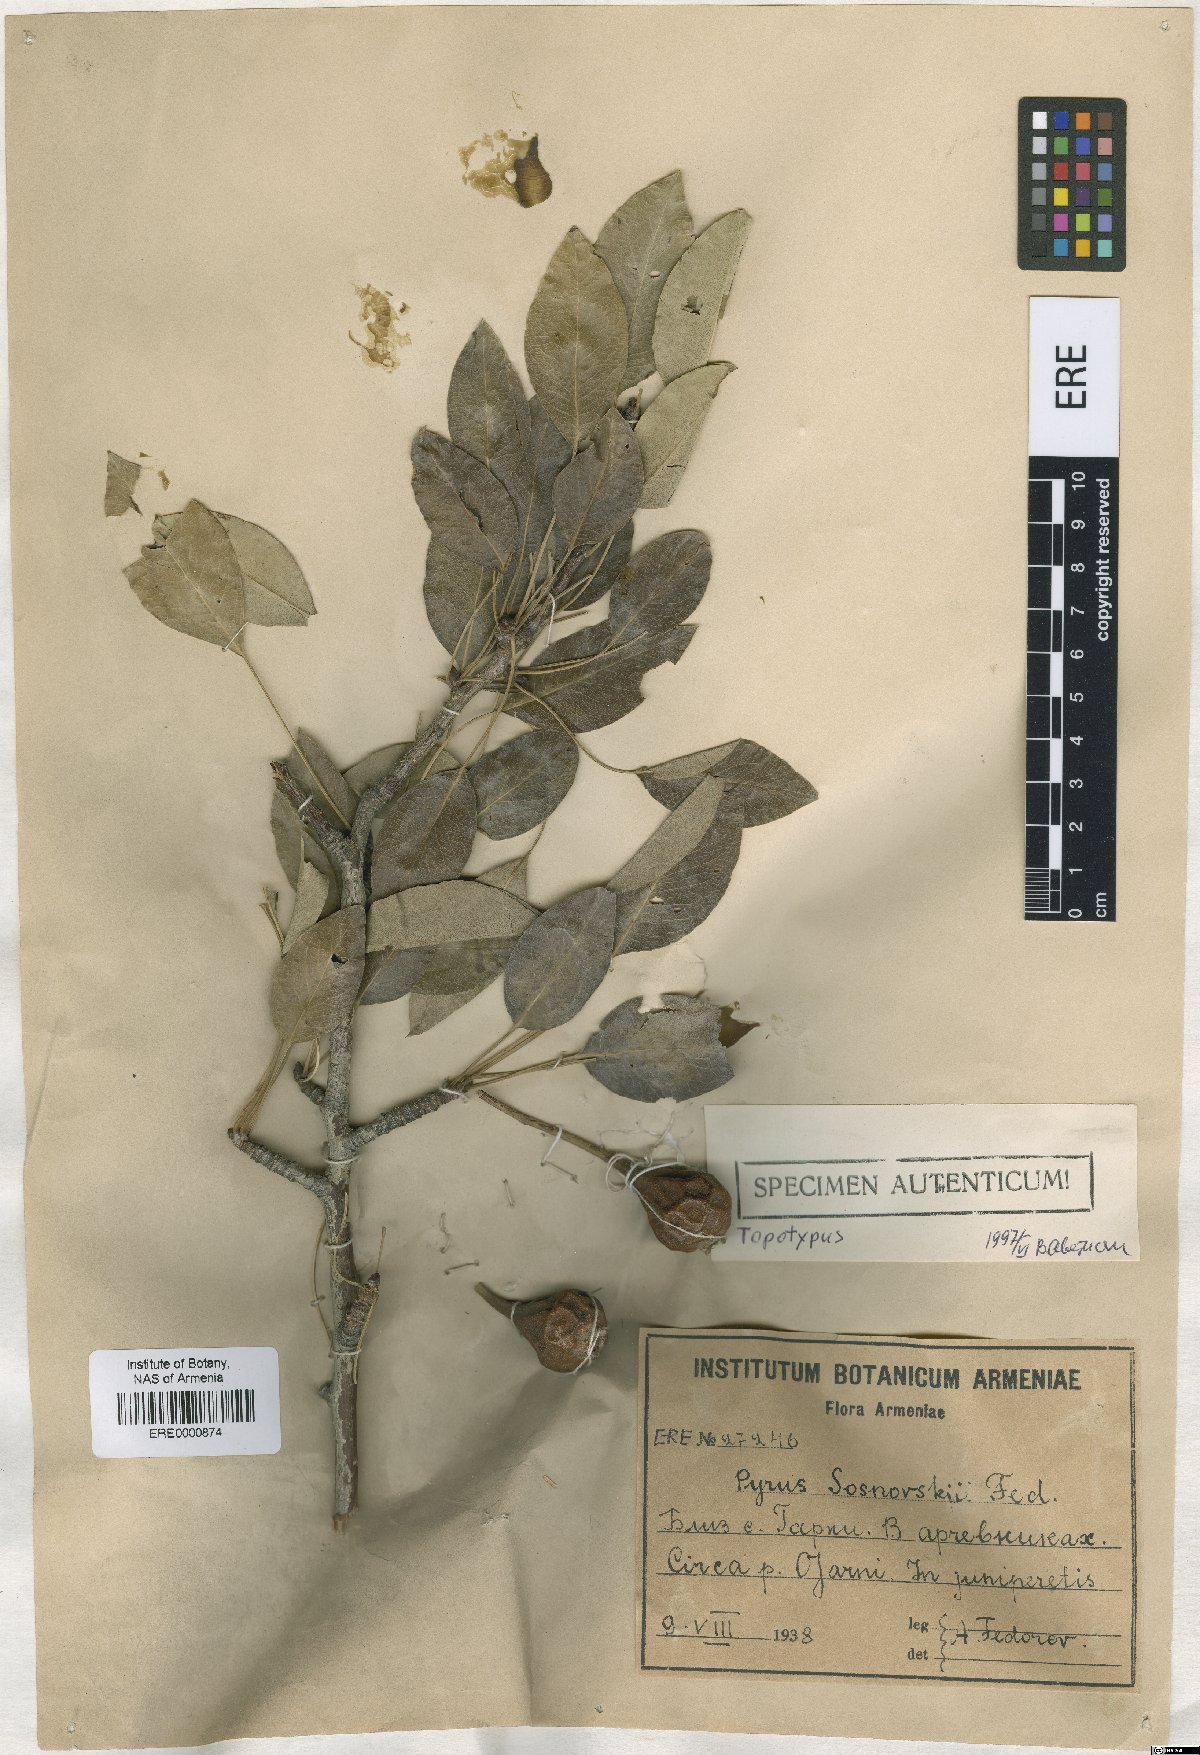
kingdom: Plantae
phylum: Tracheophyta
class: Magnoliopsida
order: Rosales
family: Rosaceae
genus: Pyrus
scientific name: Pyrus communis
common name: Pear
